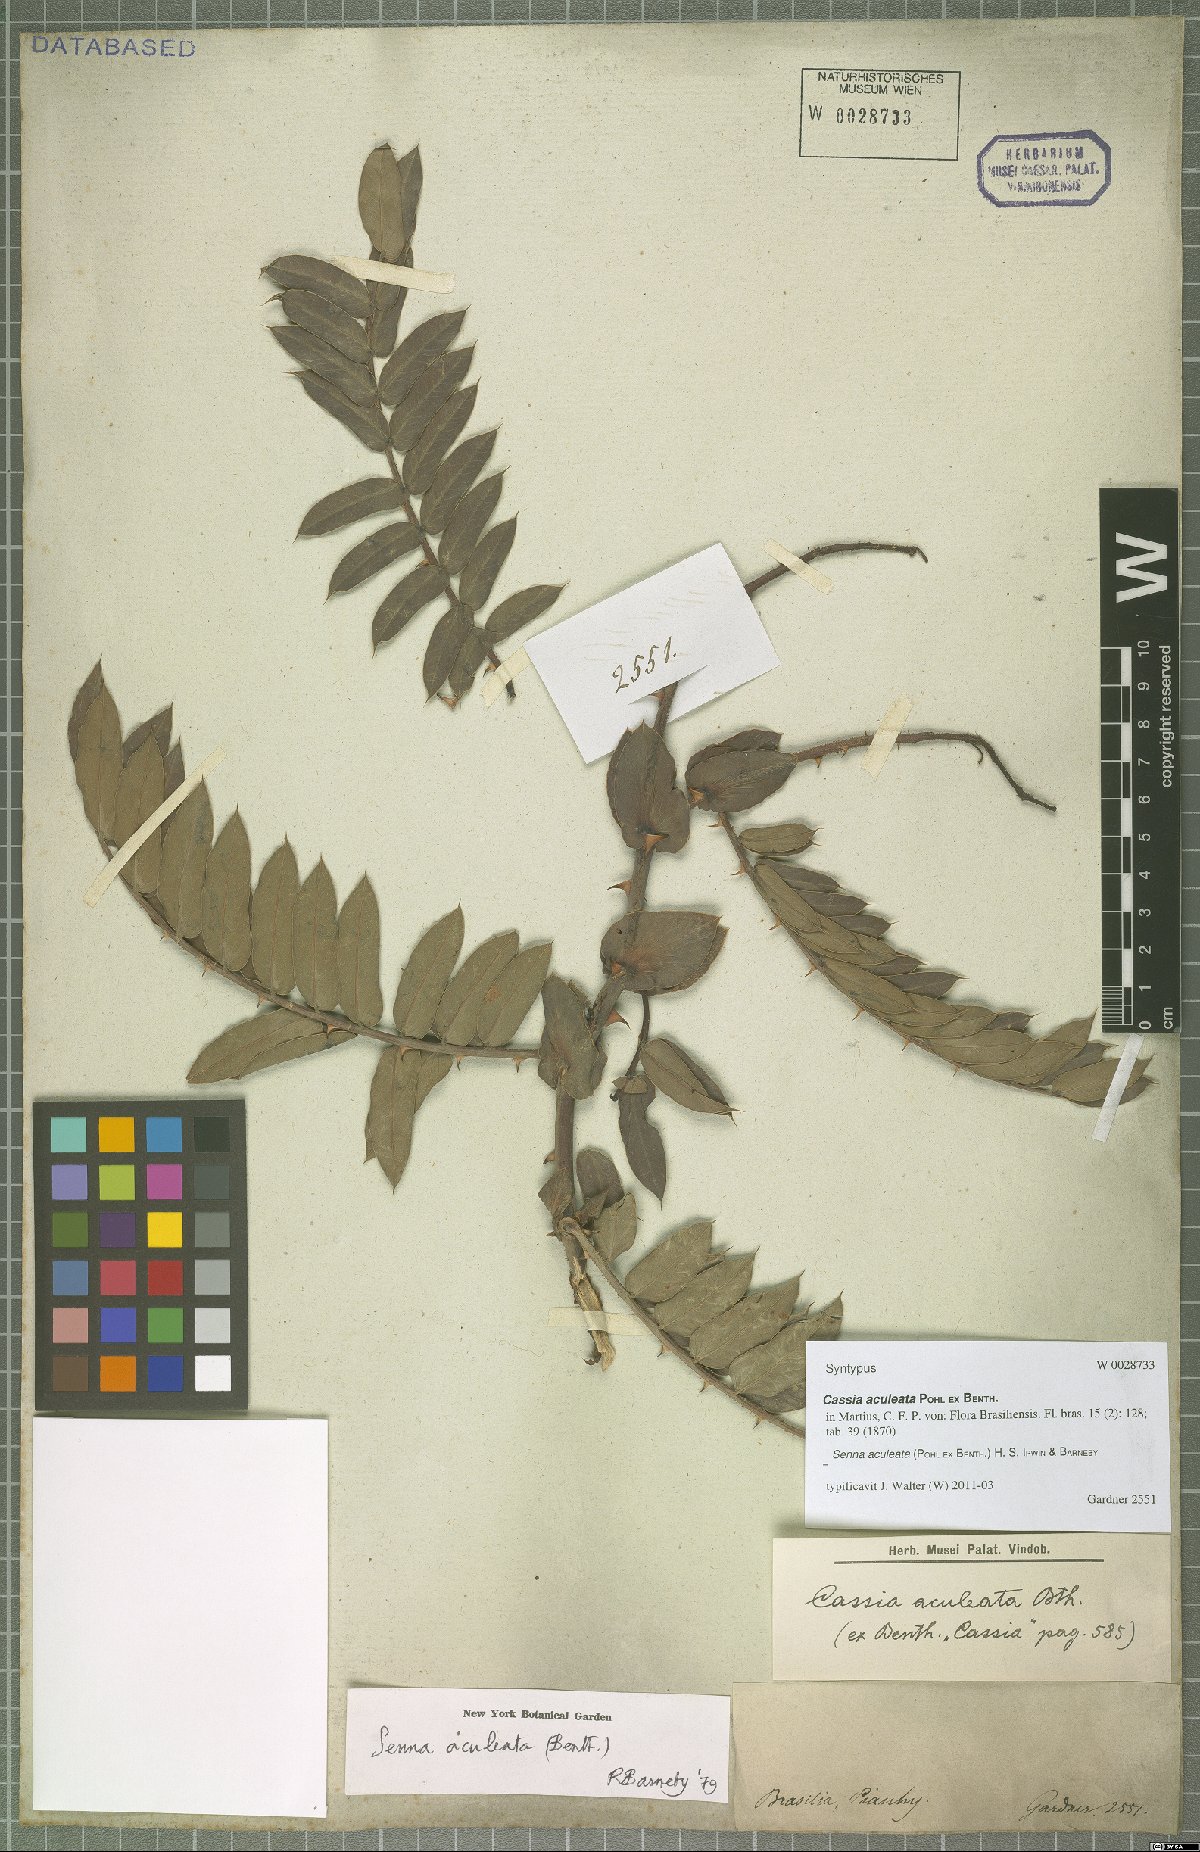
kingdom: Plantae
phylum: Tracheophyta
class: Magnoliopsida
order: Fabales
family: Fabaceae
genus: Senna
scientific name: Senna aculeata
